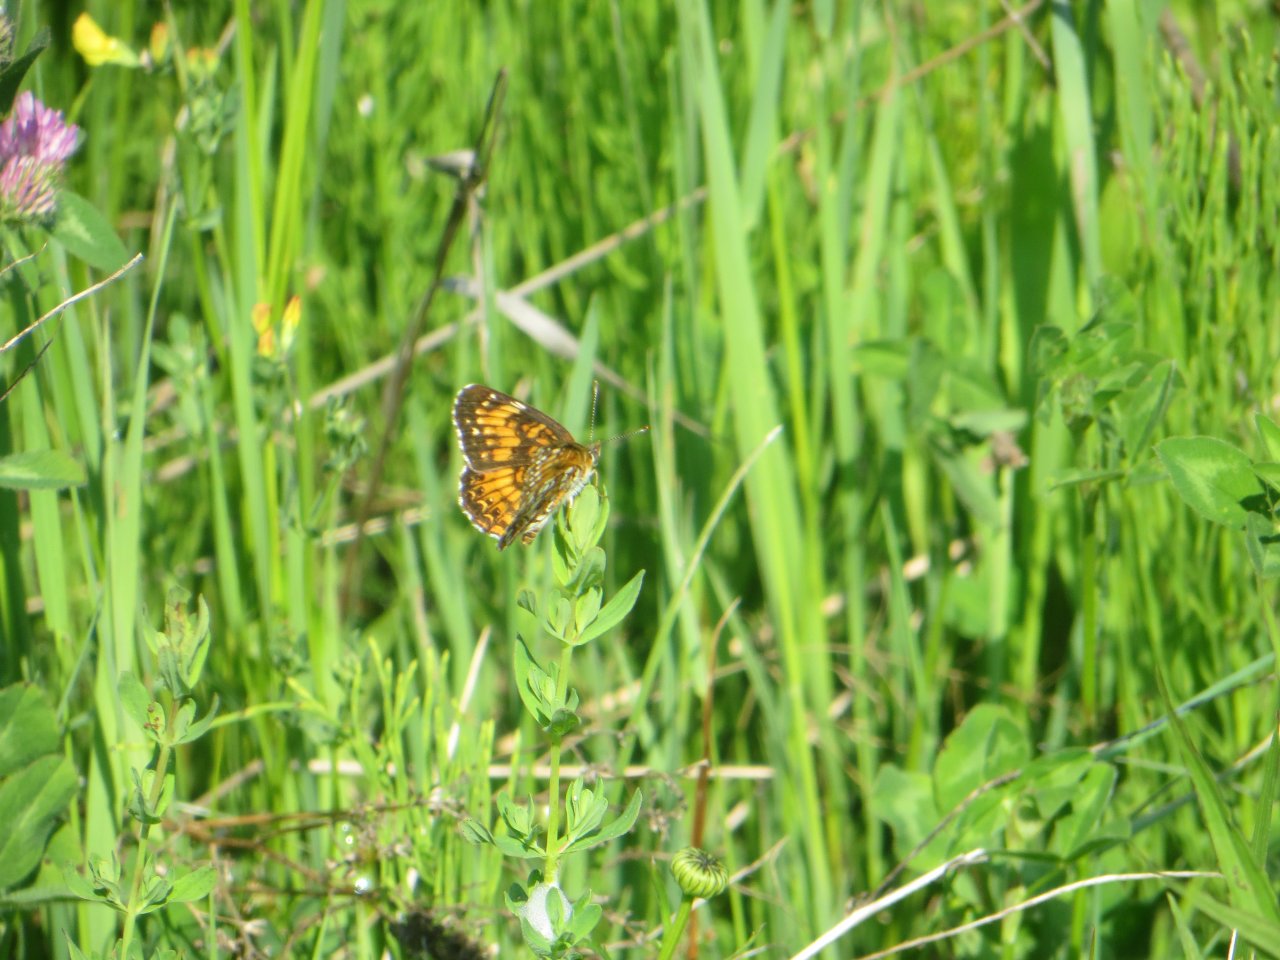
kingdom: Animalia
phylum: Arthropoda
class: Insecta
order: Lepidoptera
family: Nymphalidae
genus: Chlosyne
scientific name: Chlosyne harrisii
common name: Harris's Checkerspot
